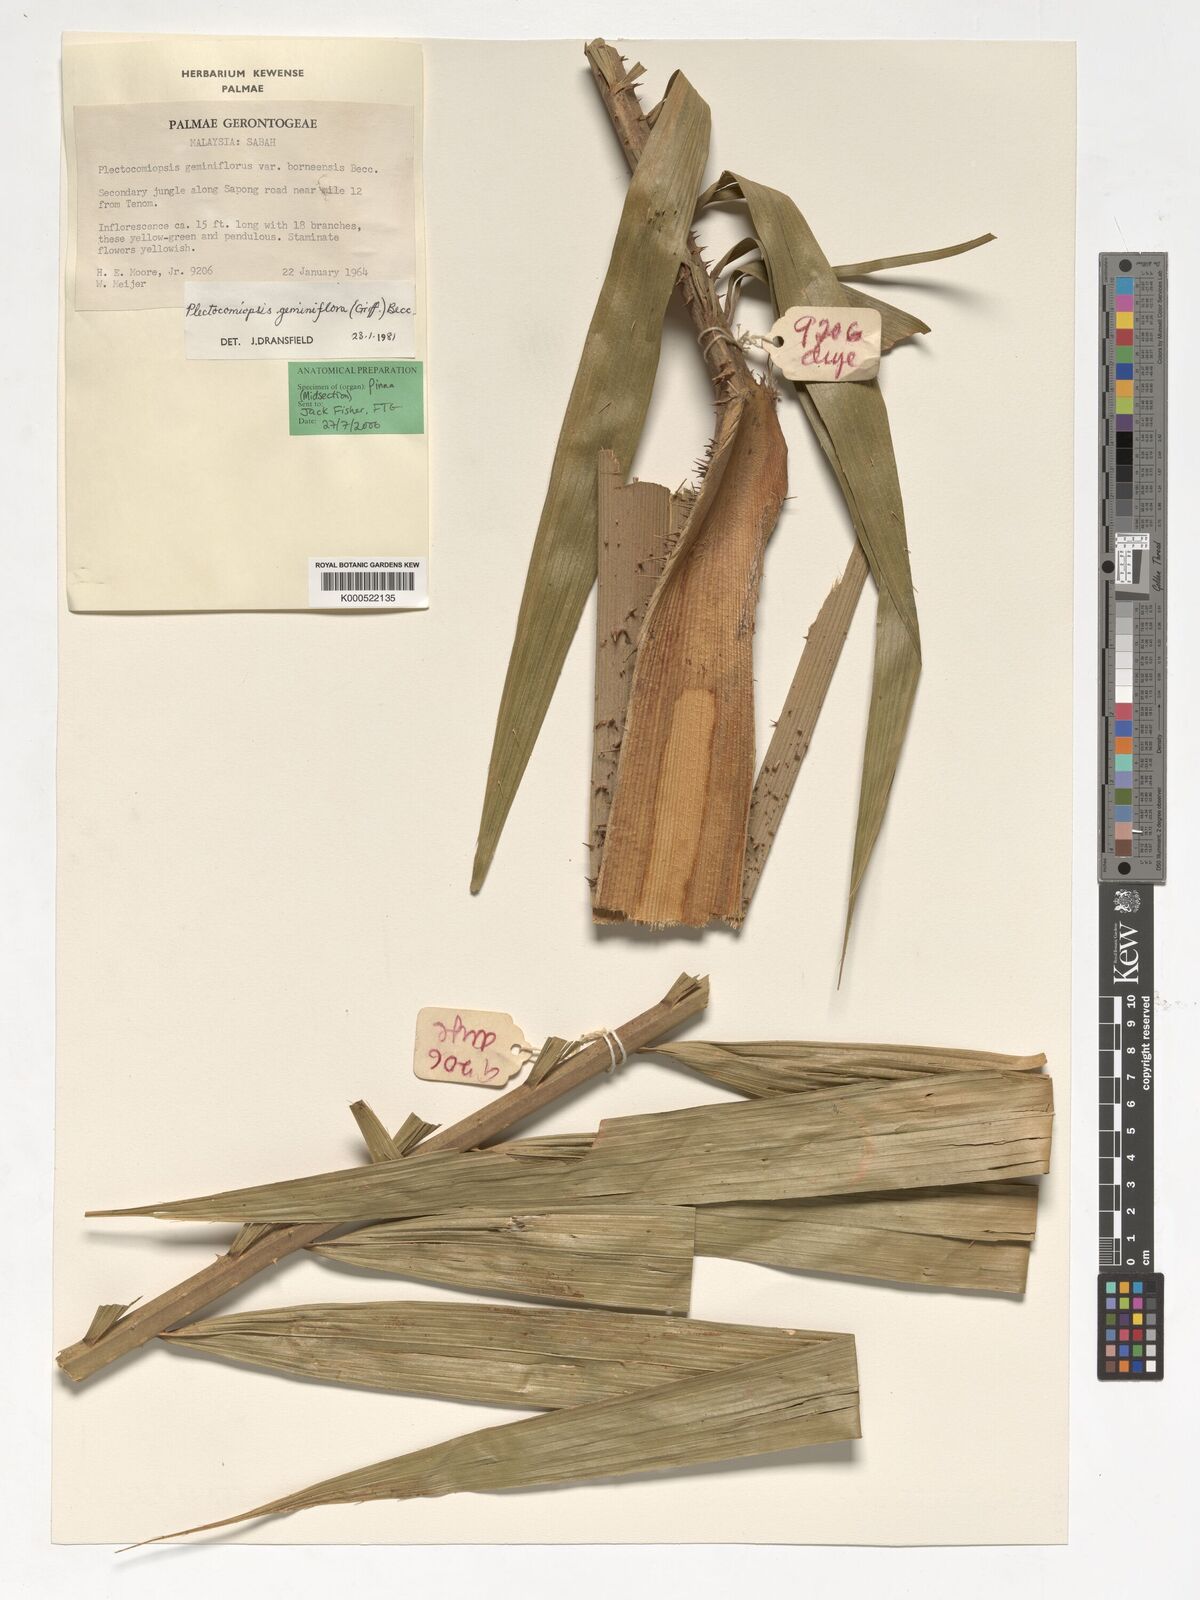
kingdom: Plantae
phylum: Tracheophyta
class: Liliopsida
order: Arecales
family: Arecaceae
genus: Plectocomiopsis
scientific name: Plectocomiopsis geminiflora
